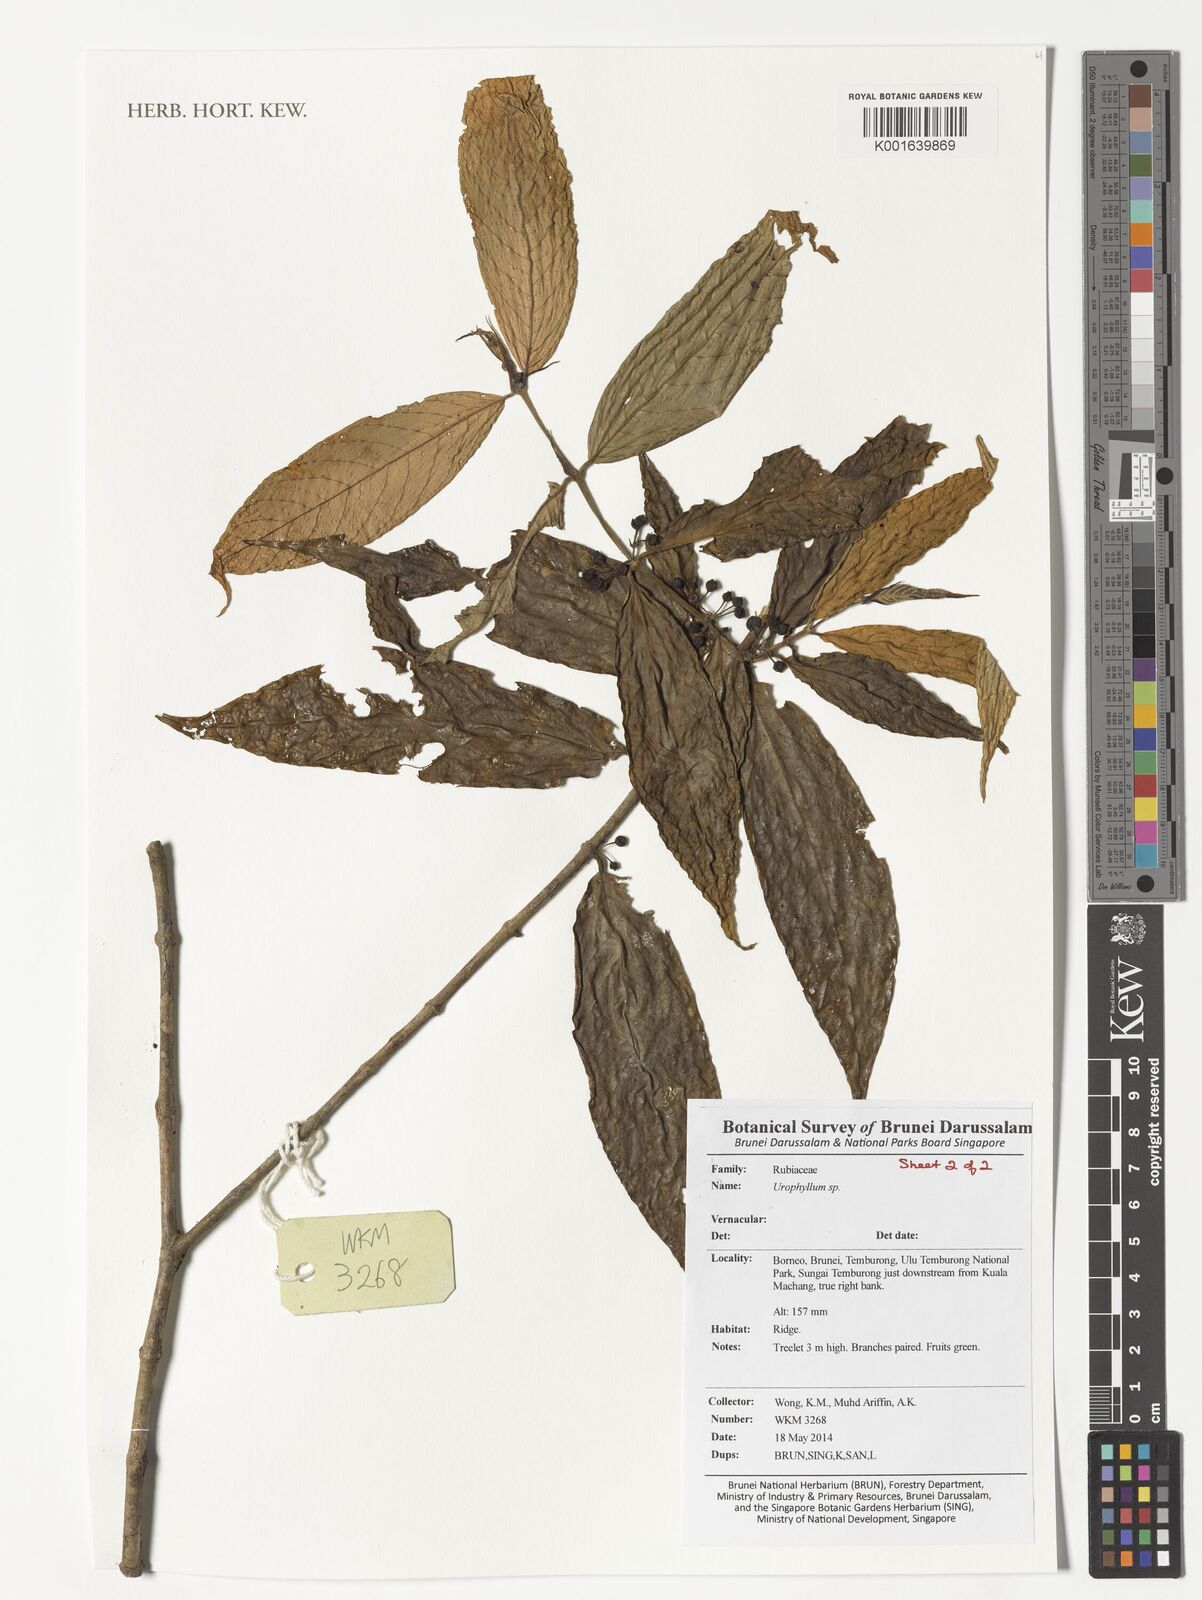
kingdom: Plantae
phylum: Tracheophyta
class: Magnoliopsida
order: Gentianales
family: Rubiaceae
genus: Urophyllum
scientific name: Urophyllum
